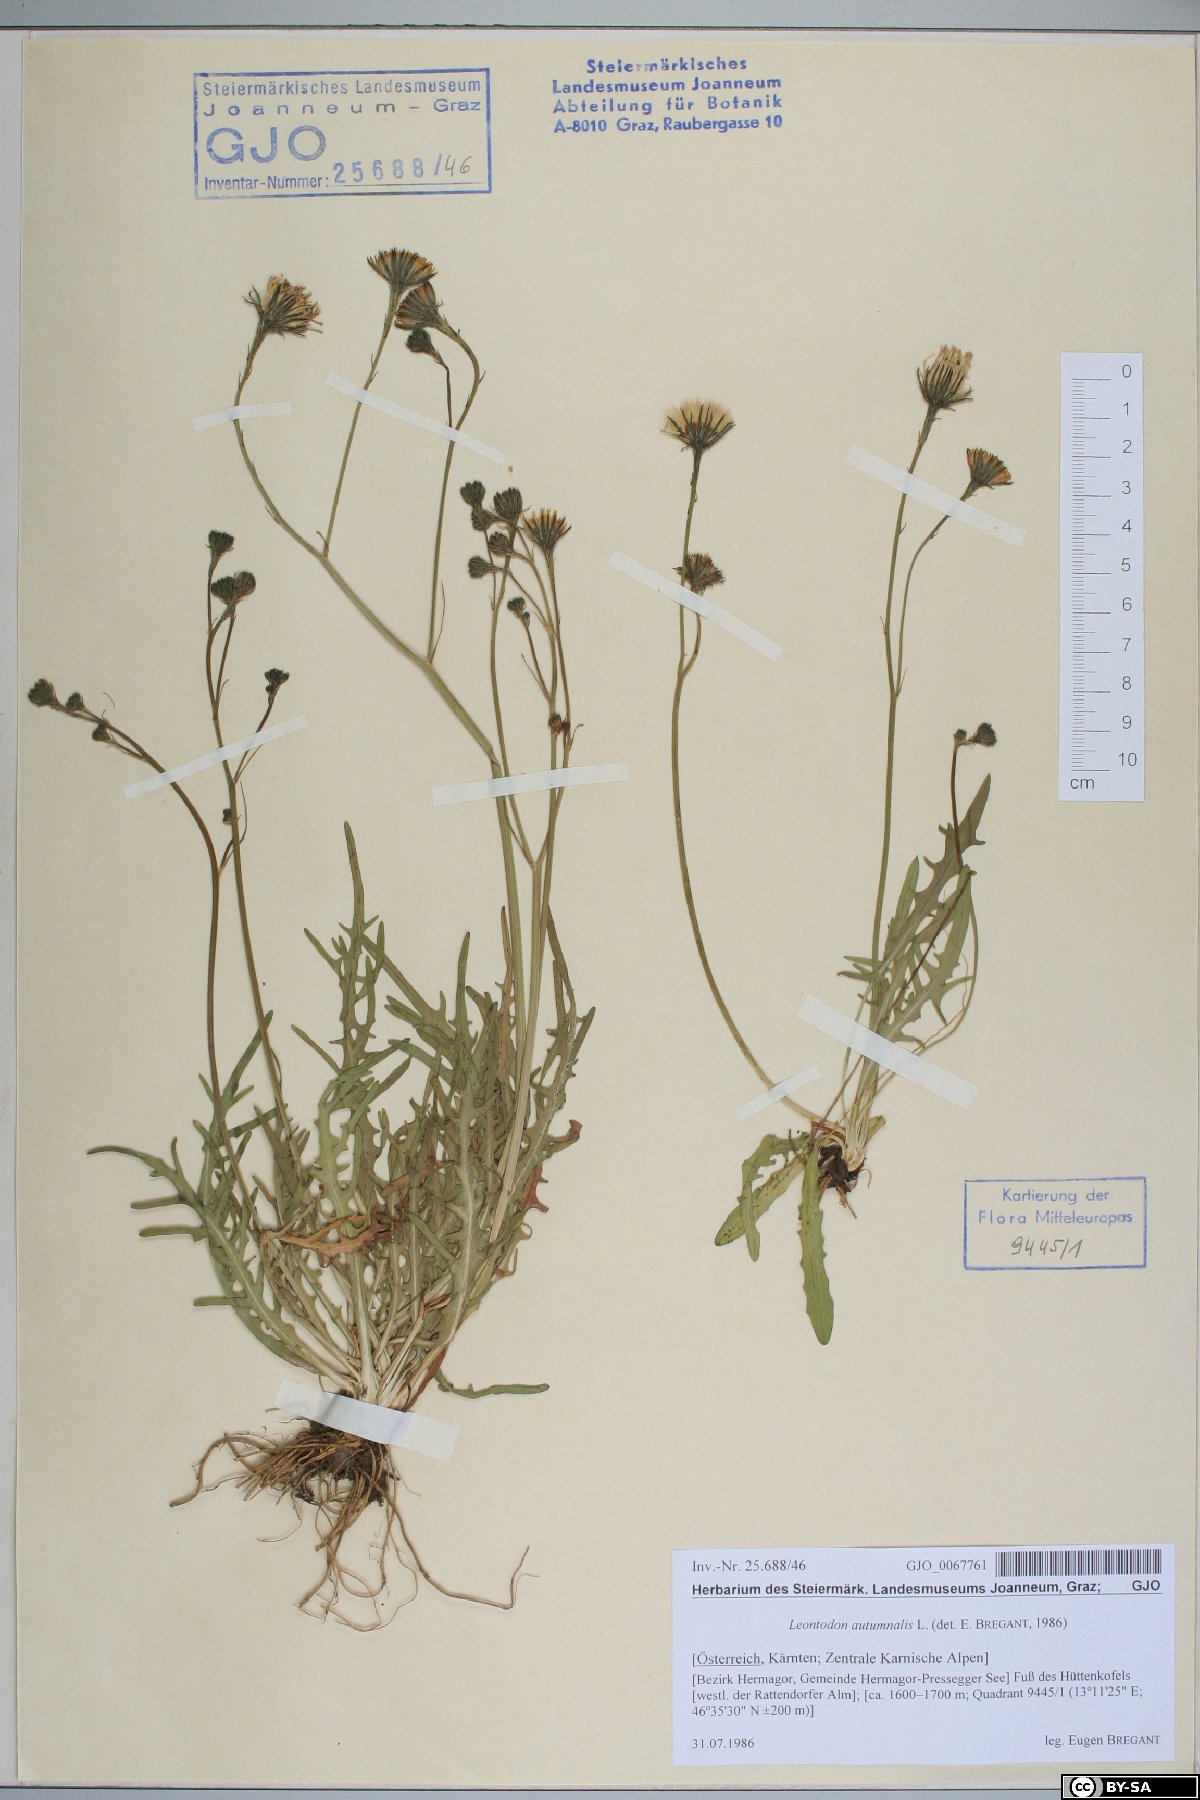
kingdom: Plantae
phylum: Tracheophyta
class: Magnoliopsida
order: Asterales
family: Asteraceae
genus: Scorzoneroides
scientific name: Scorzoneroides autumnalis
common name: Autumn hawkbit
